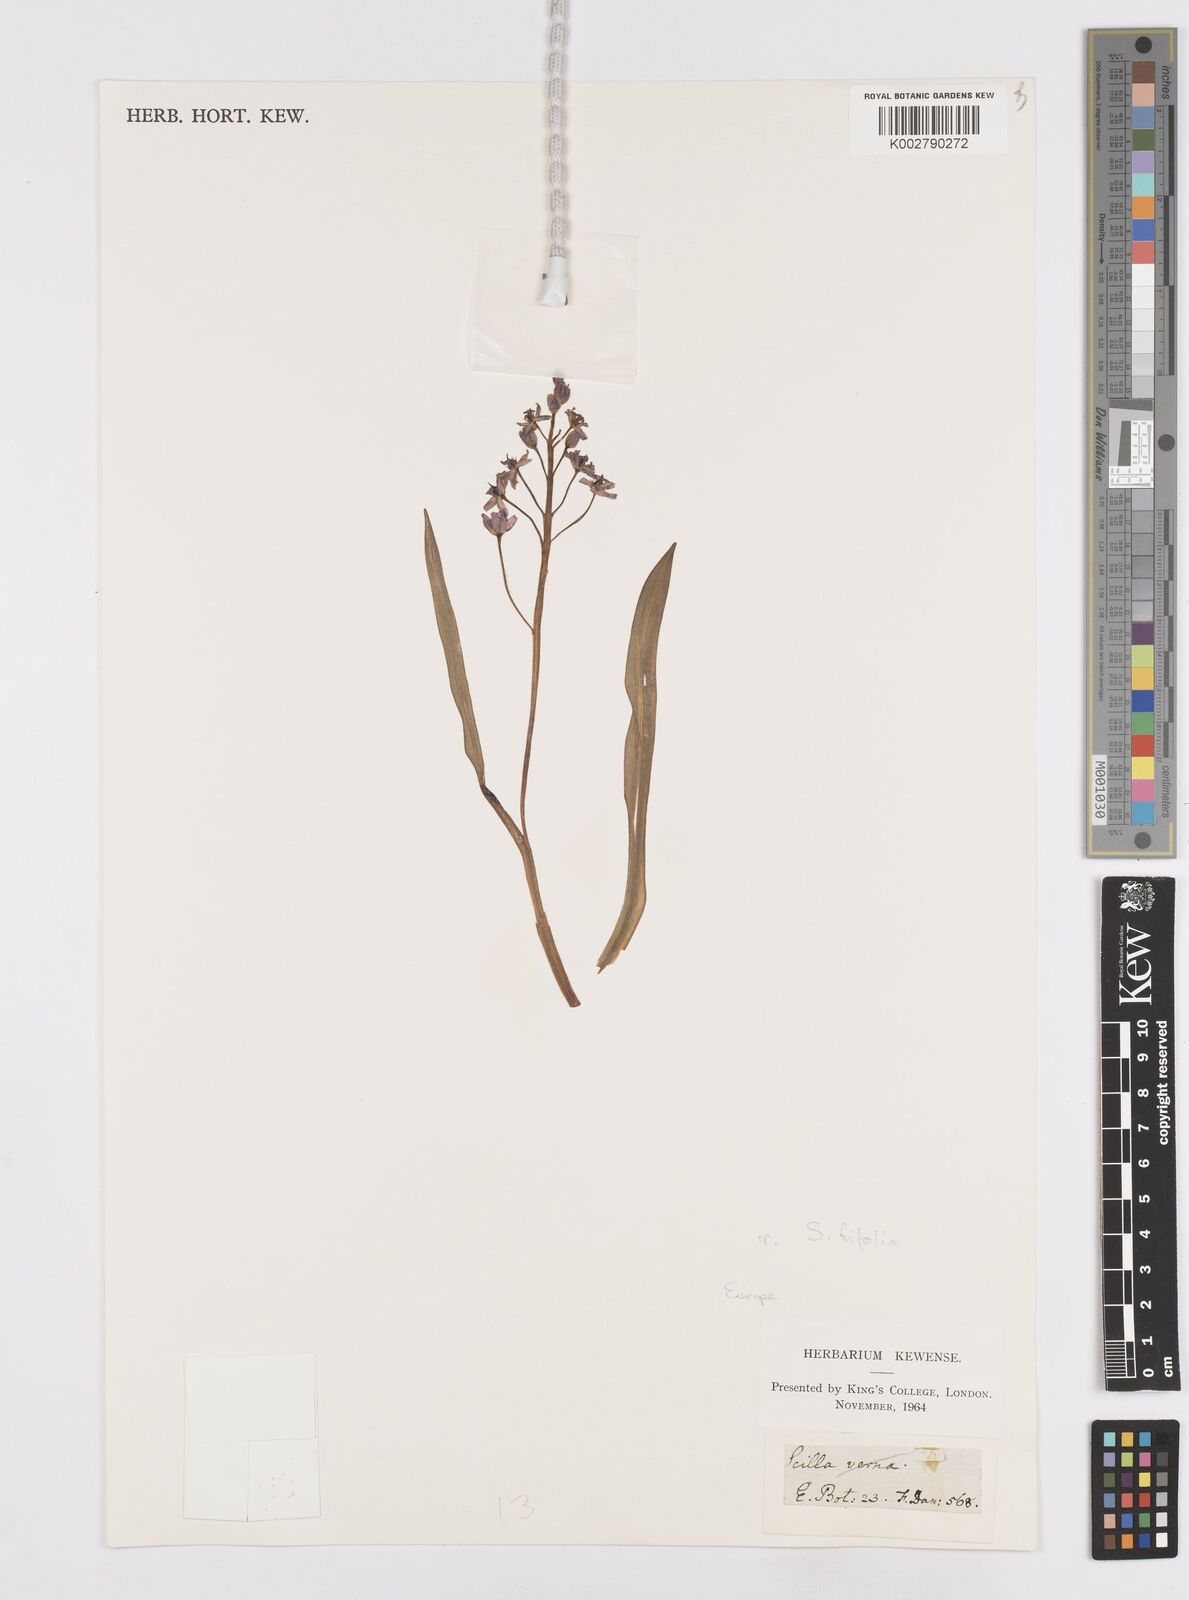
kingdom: Plantae
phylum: Tracheophyta
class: Liliopsida
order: Asparagales
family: Asparagaceae
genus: Scilla
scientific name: Scilla bifolia
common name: Alpine squill
